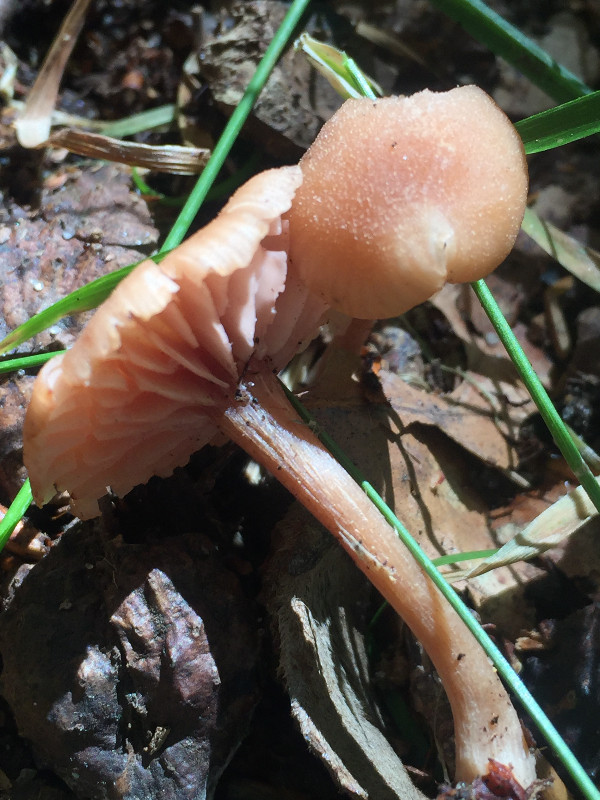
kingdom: Fungi
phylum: Basidiomycota
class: Agaricomycetes
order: Agaricales
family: Hydnangiaceae
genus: Laccaria
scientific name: Laccaria laccata
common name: rød ametysthat
